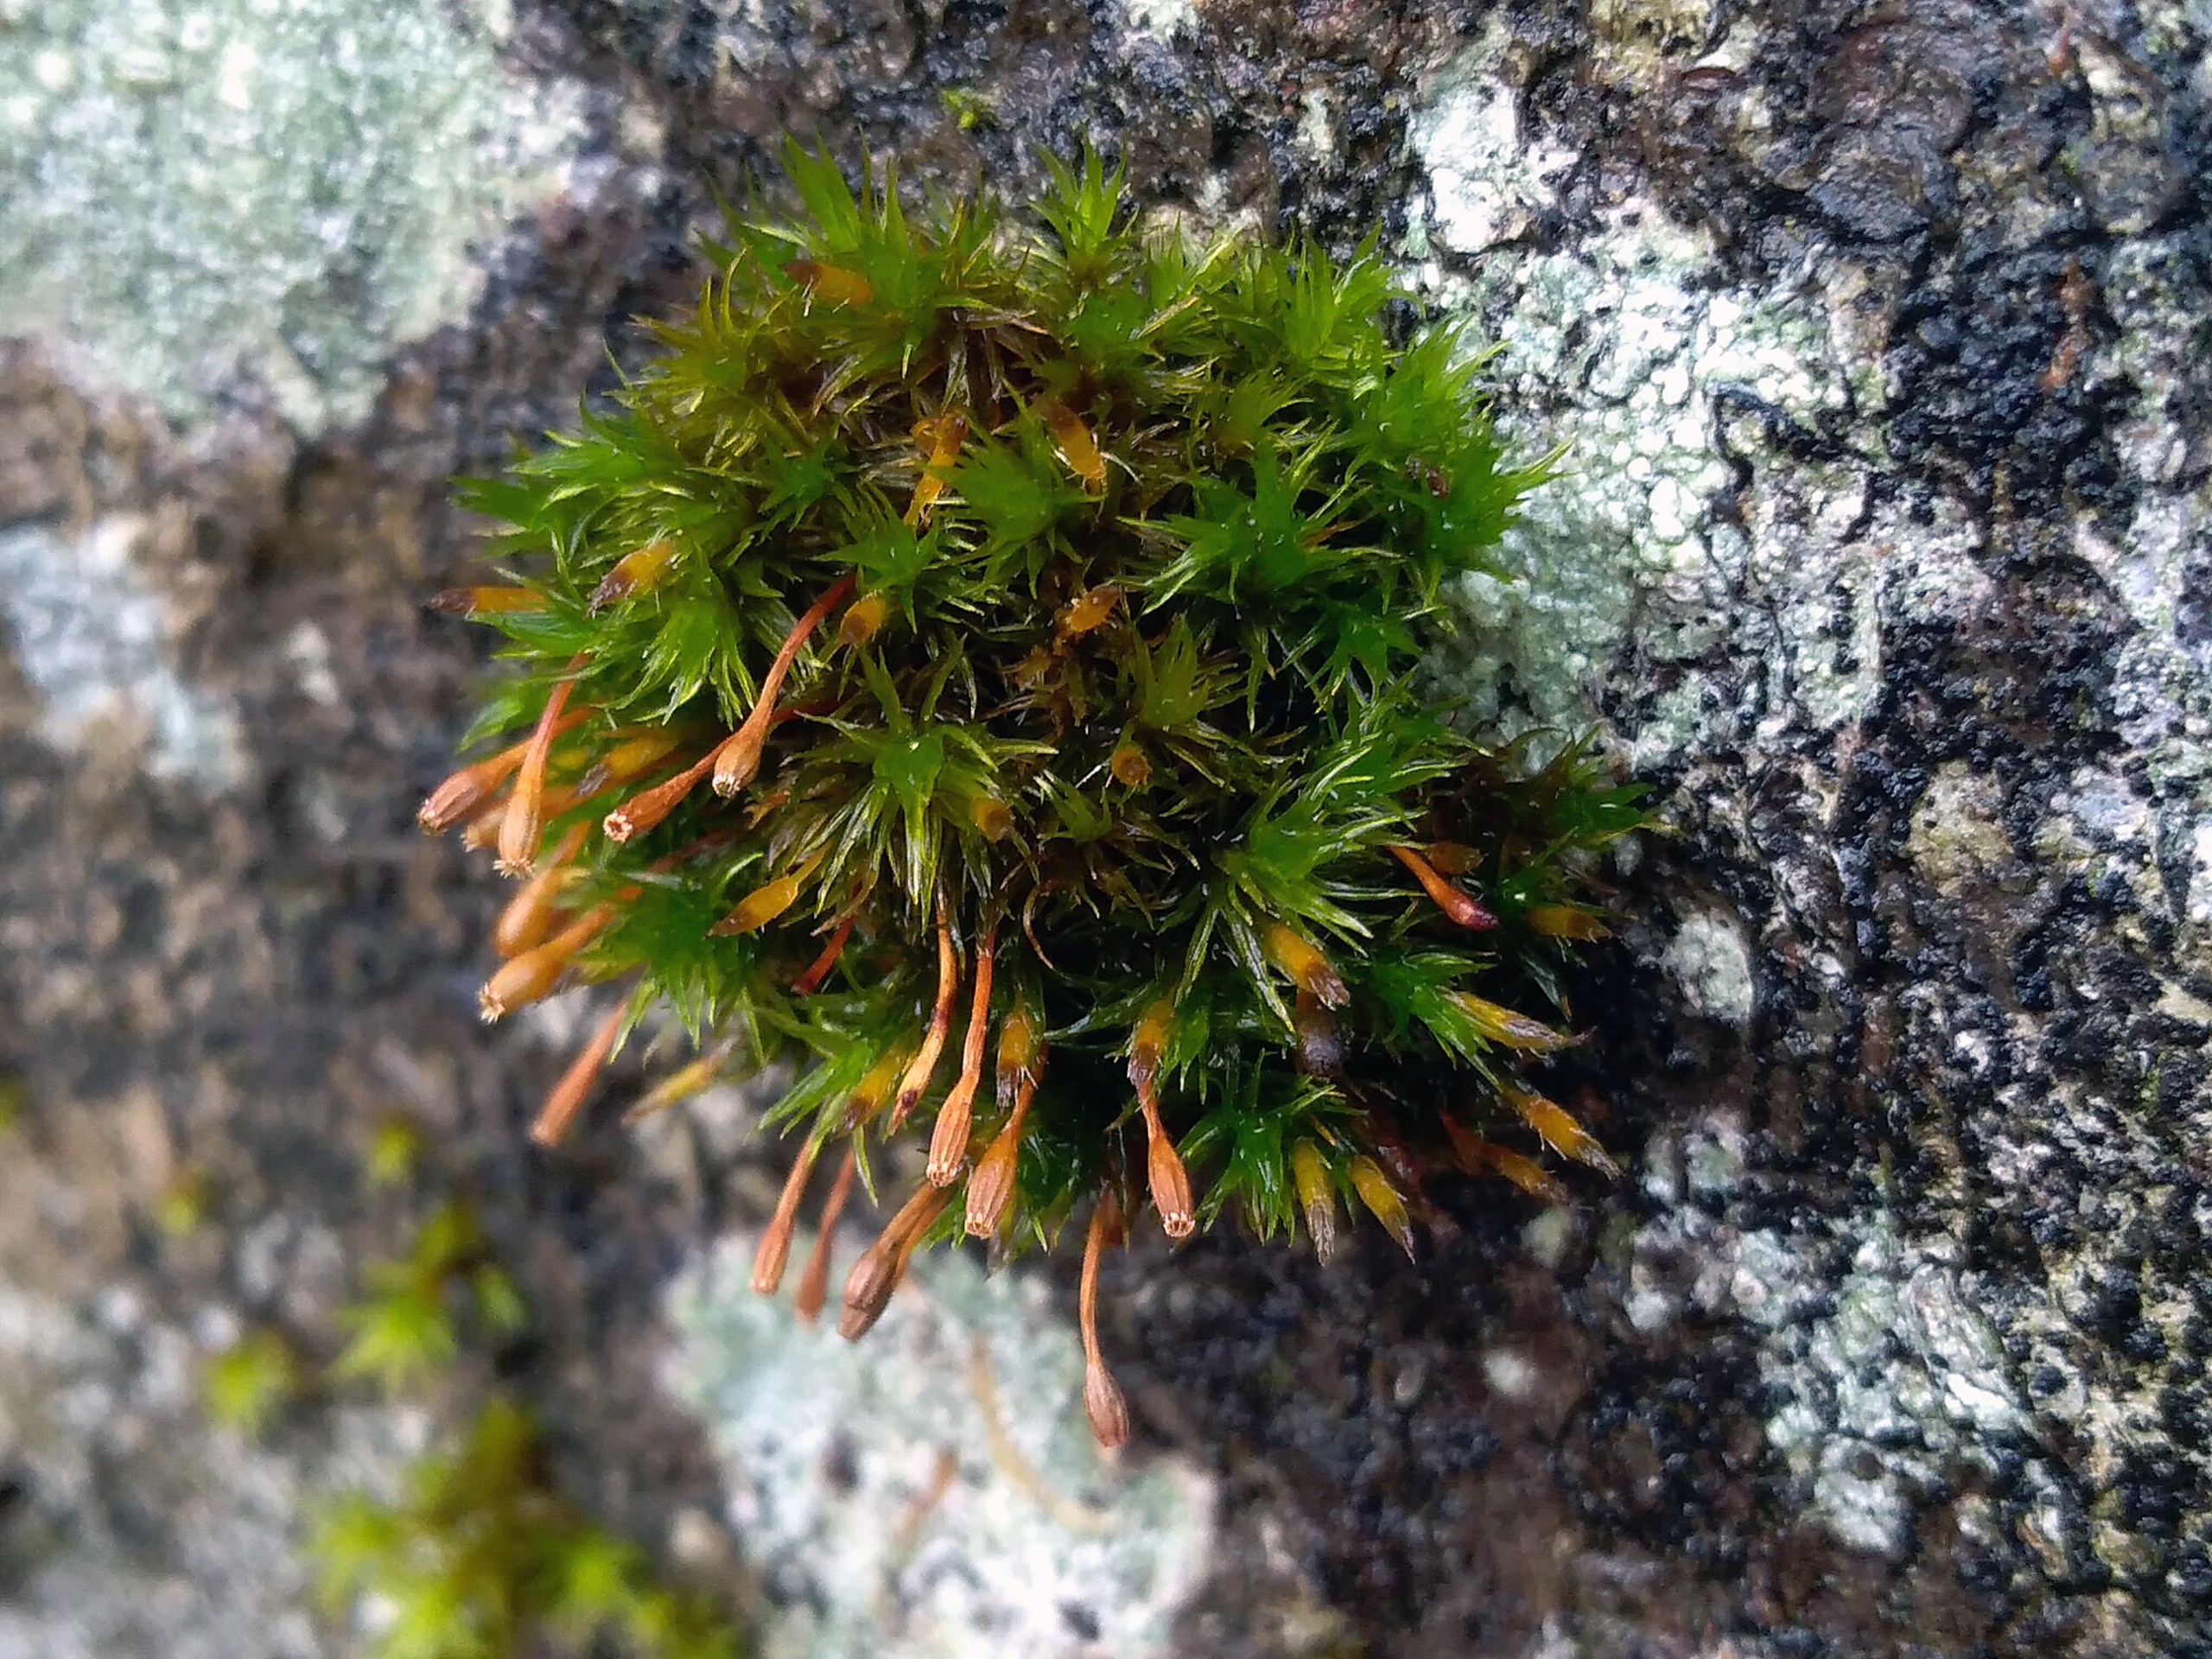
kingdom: Plantae
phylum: Bryophyta
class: Bryopsida
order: Orthotrichales
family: Orthotrichaceae
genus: Ulota
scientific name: Ulota bruchii
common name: Bruchs låddenhætte
